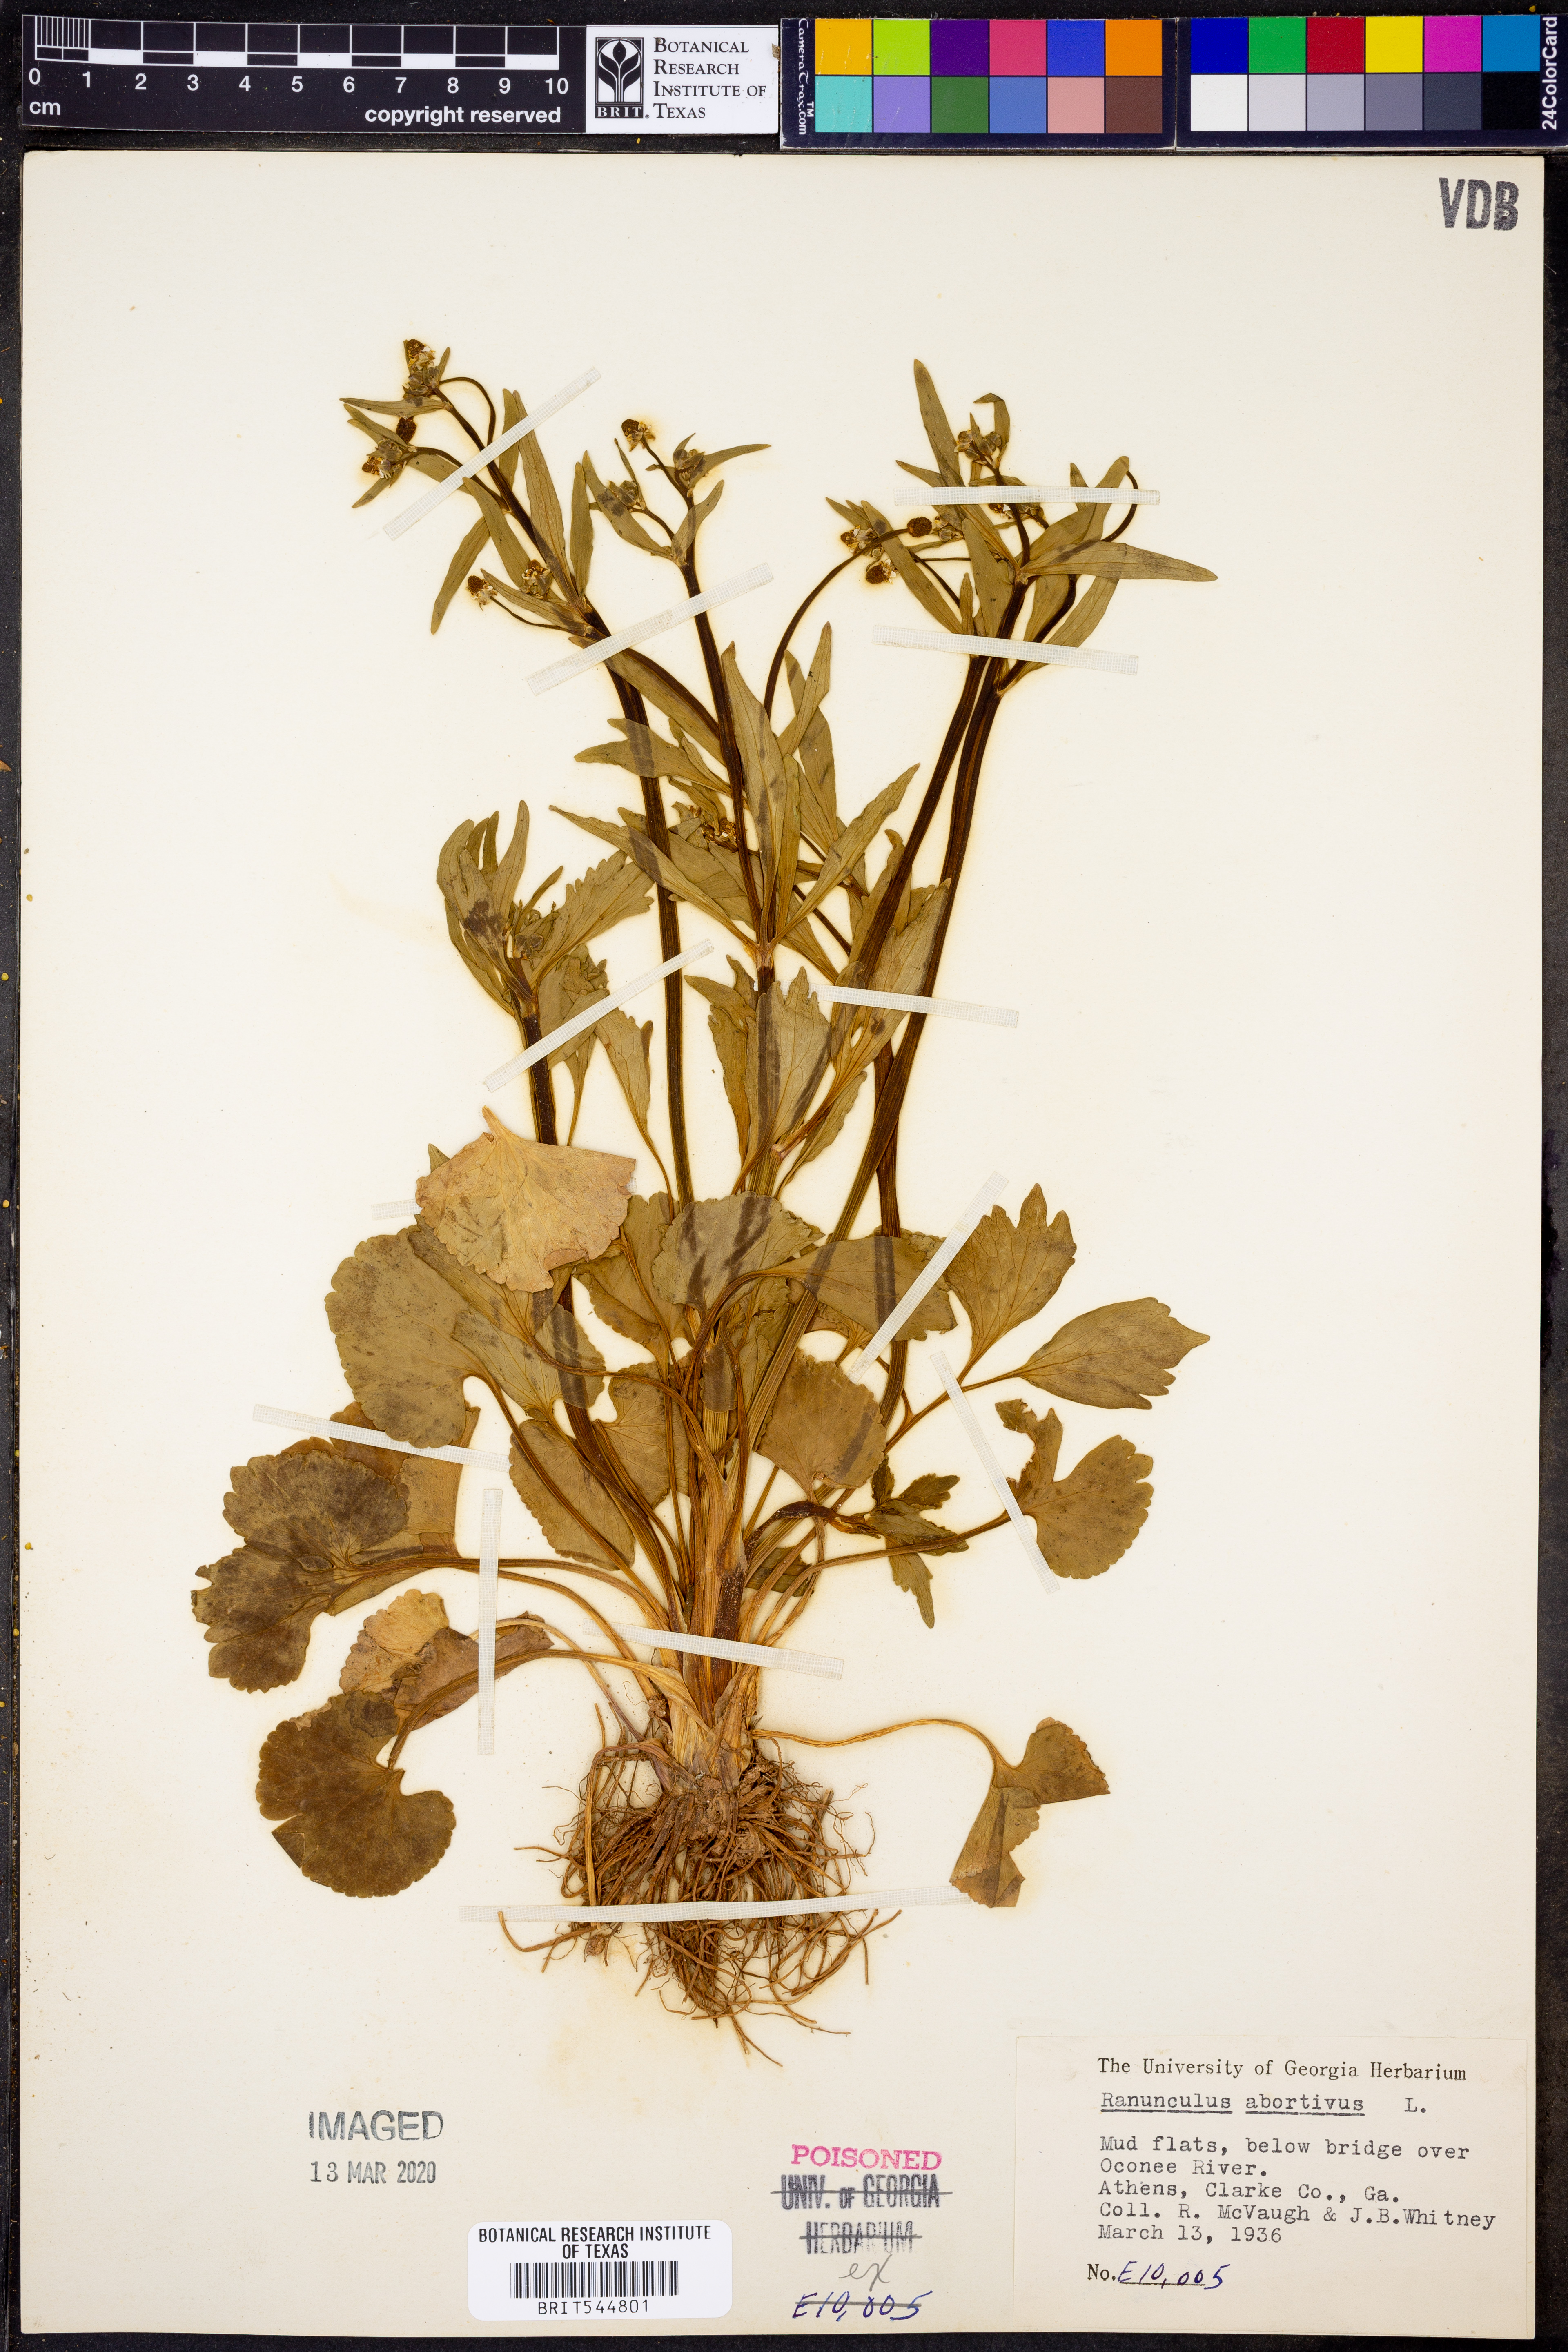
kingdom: Plantae
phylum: Tracheophyta
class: Magnoliopsida
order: Ranunculales
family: Ranunculaceae
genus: Ranunculus
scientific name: Ranunculus abortivus
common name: Early wood buttercup
